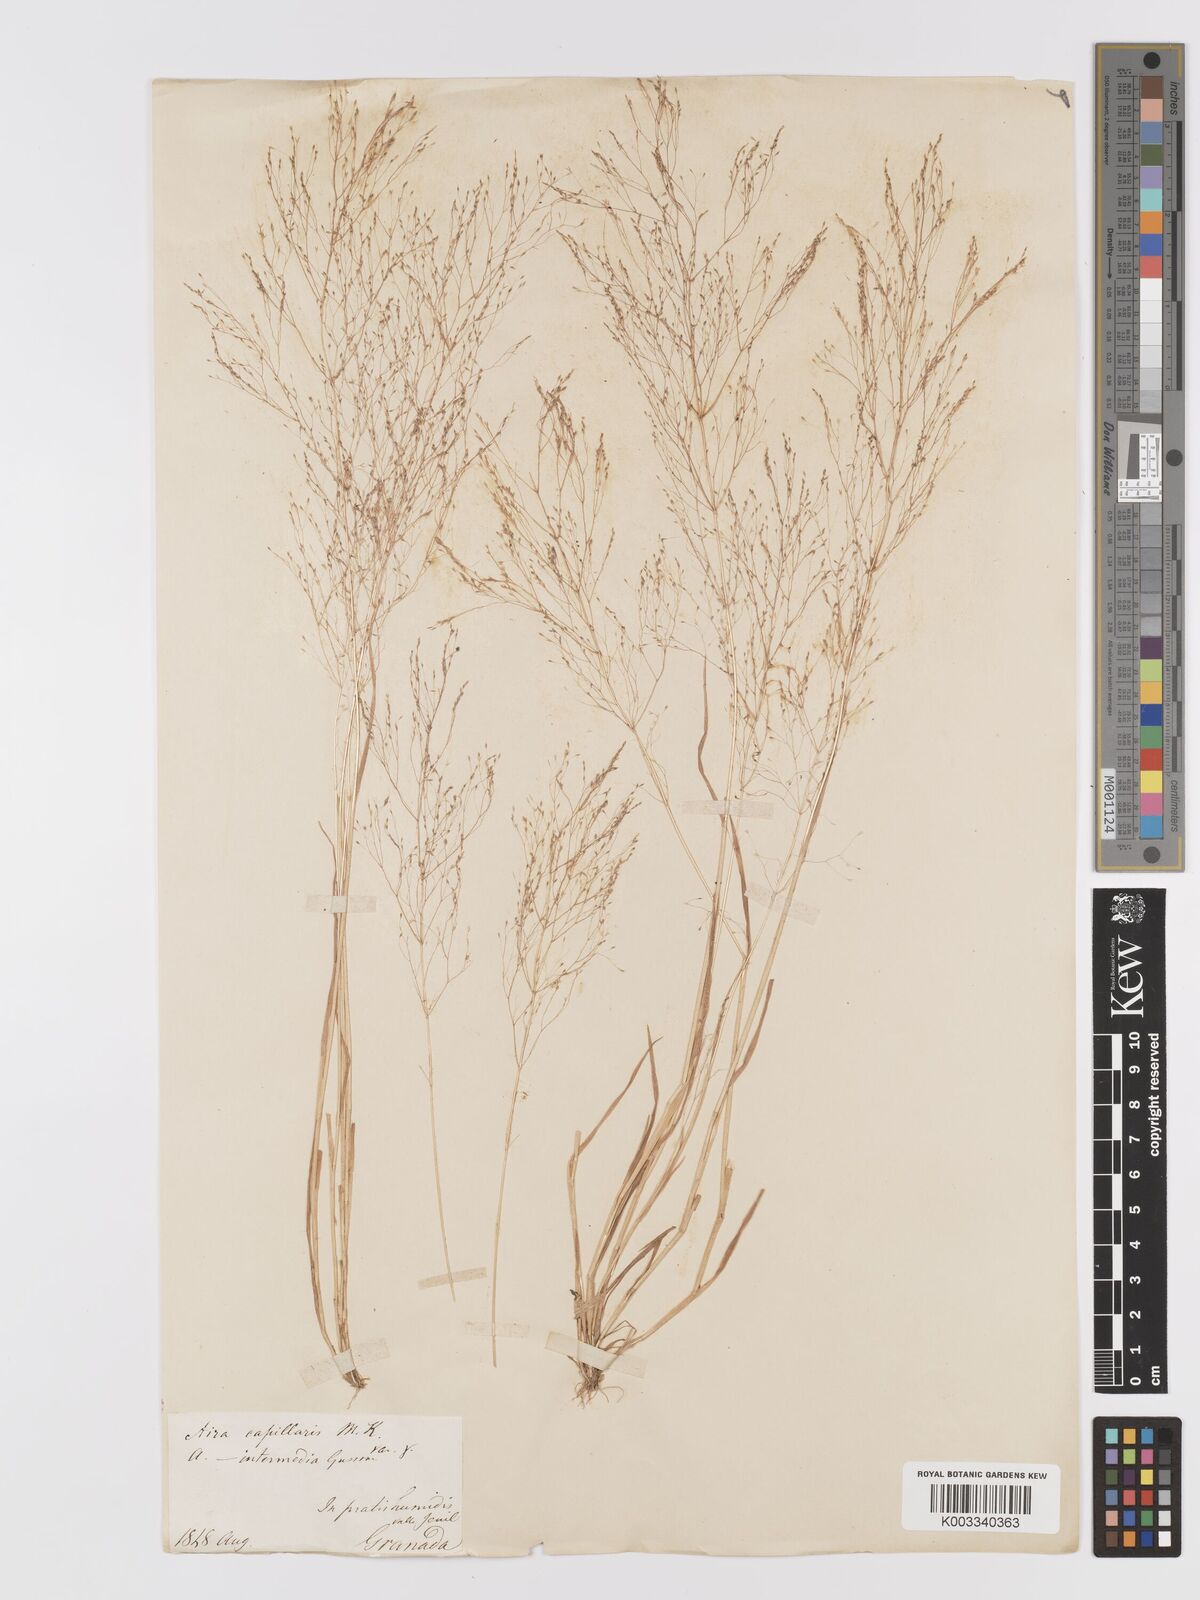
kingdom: Plantae
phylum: Tracheophyta
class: Liliopsida
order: Poales
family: Poaceae
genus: Agrostis
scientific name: Agrostis castellana
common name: Highland bent
